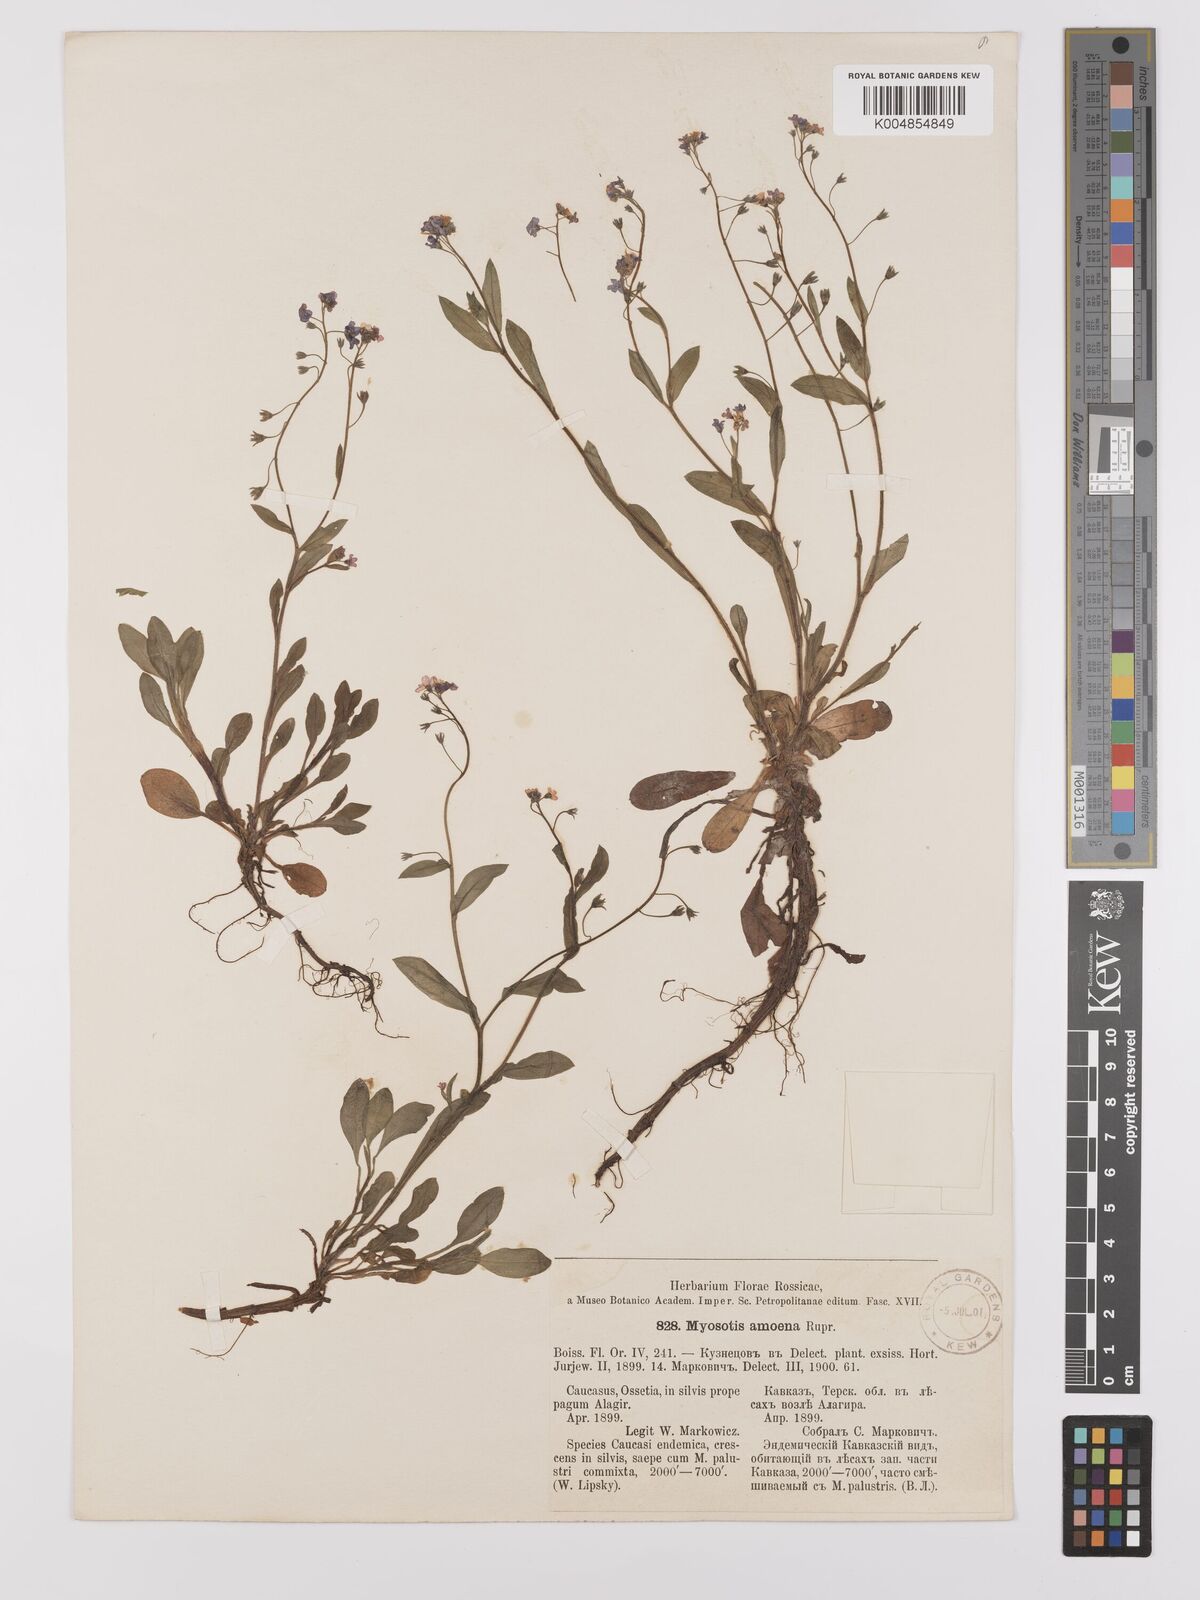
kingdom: Plantae
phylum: Tracheophyta
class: Magnoliopsida
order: Boraginales
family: Boraginaceae
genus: Myosotis
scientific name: Myosotis
